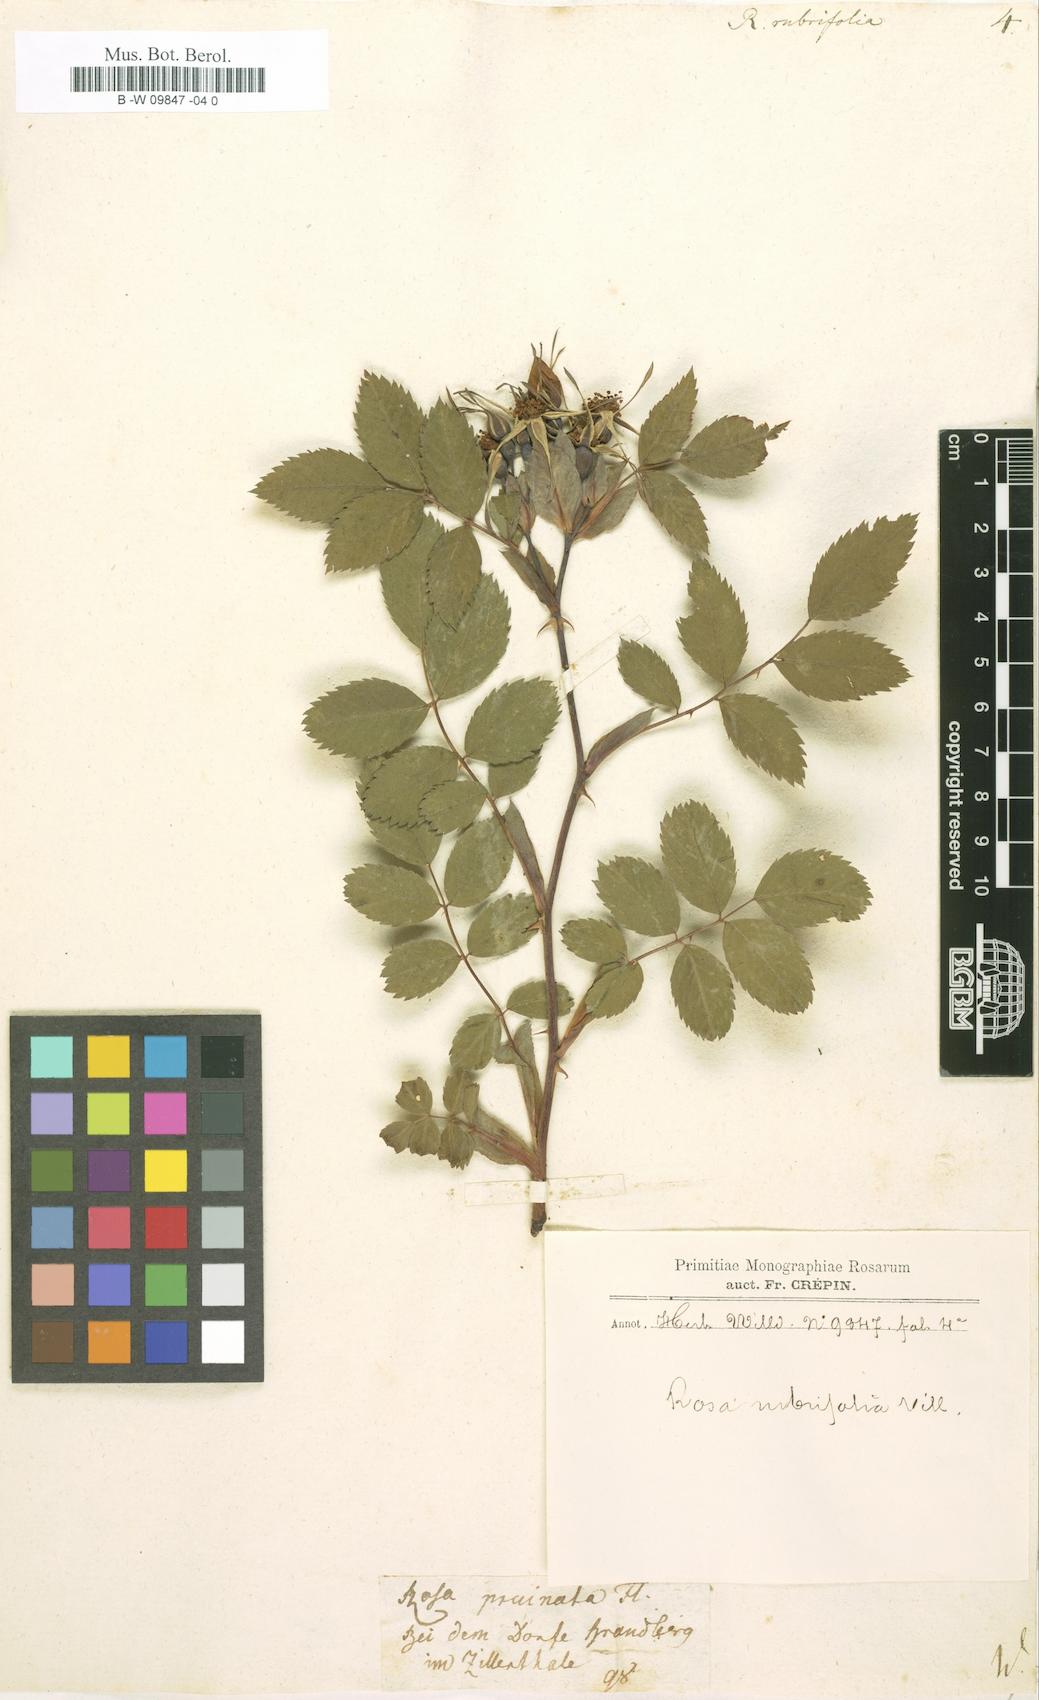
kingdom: Plantae
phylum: Tracheophyta
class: Magnoliopsida
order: Rosales
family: Rosaceae
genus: Rosa
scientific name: Rosa
